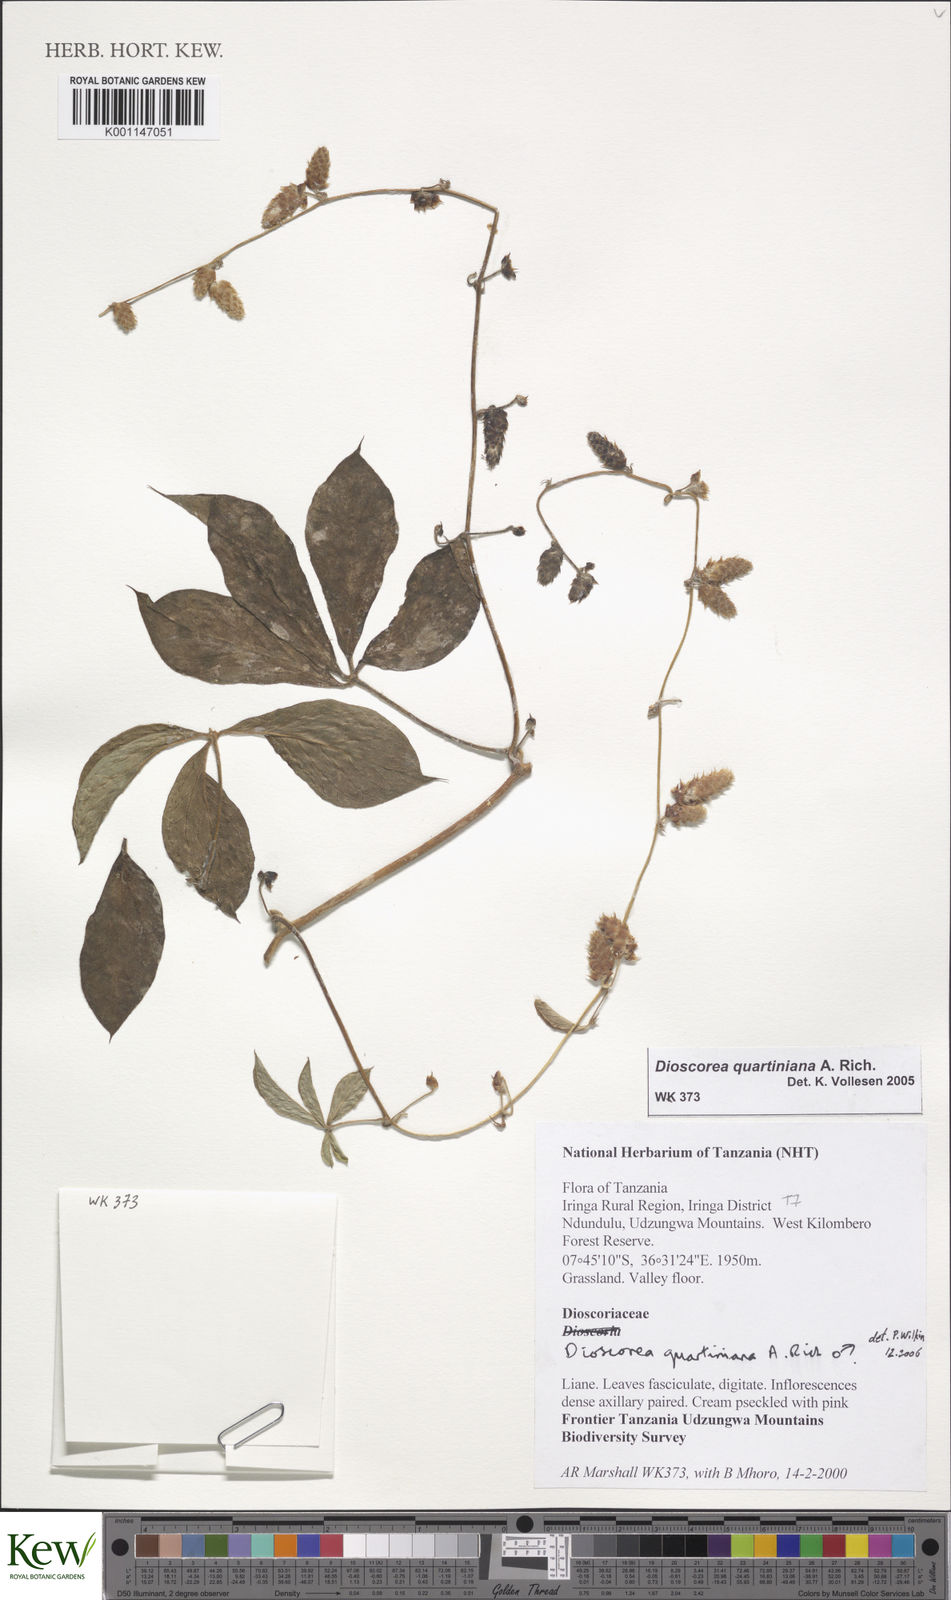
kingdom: Plantae
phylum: Tracheophyta
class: Liliopsida
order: Dioscoreales
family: Dioscoreaceae
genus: Dioscorea
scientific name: Dioscorea quartiniana
